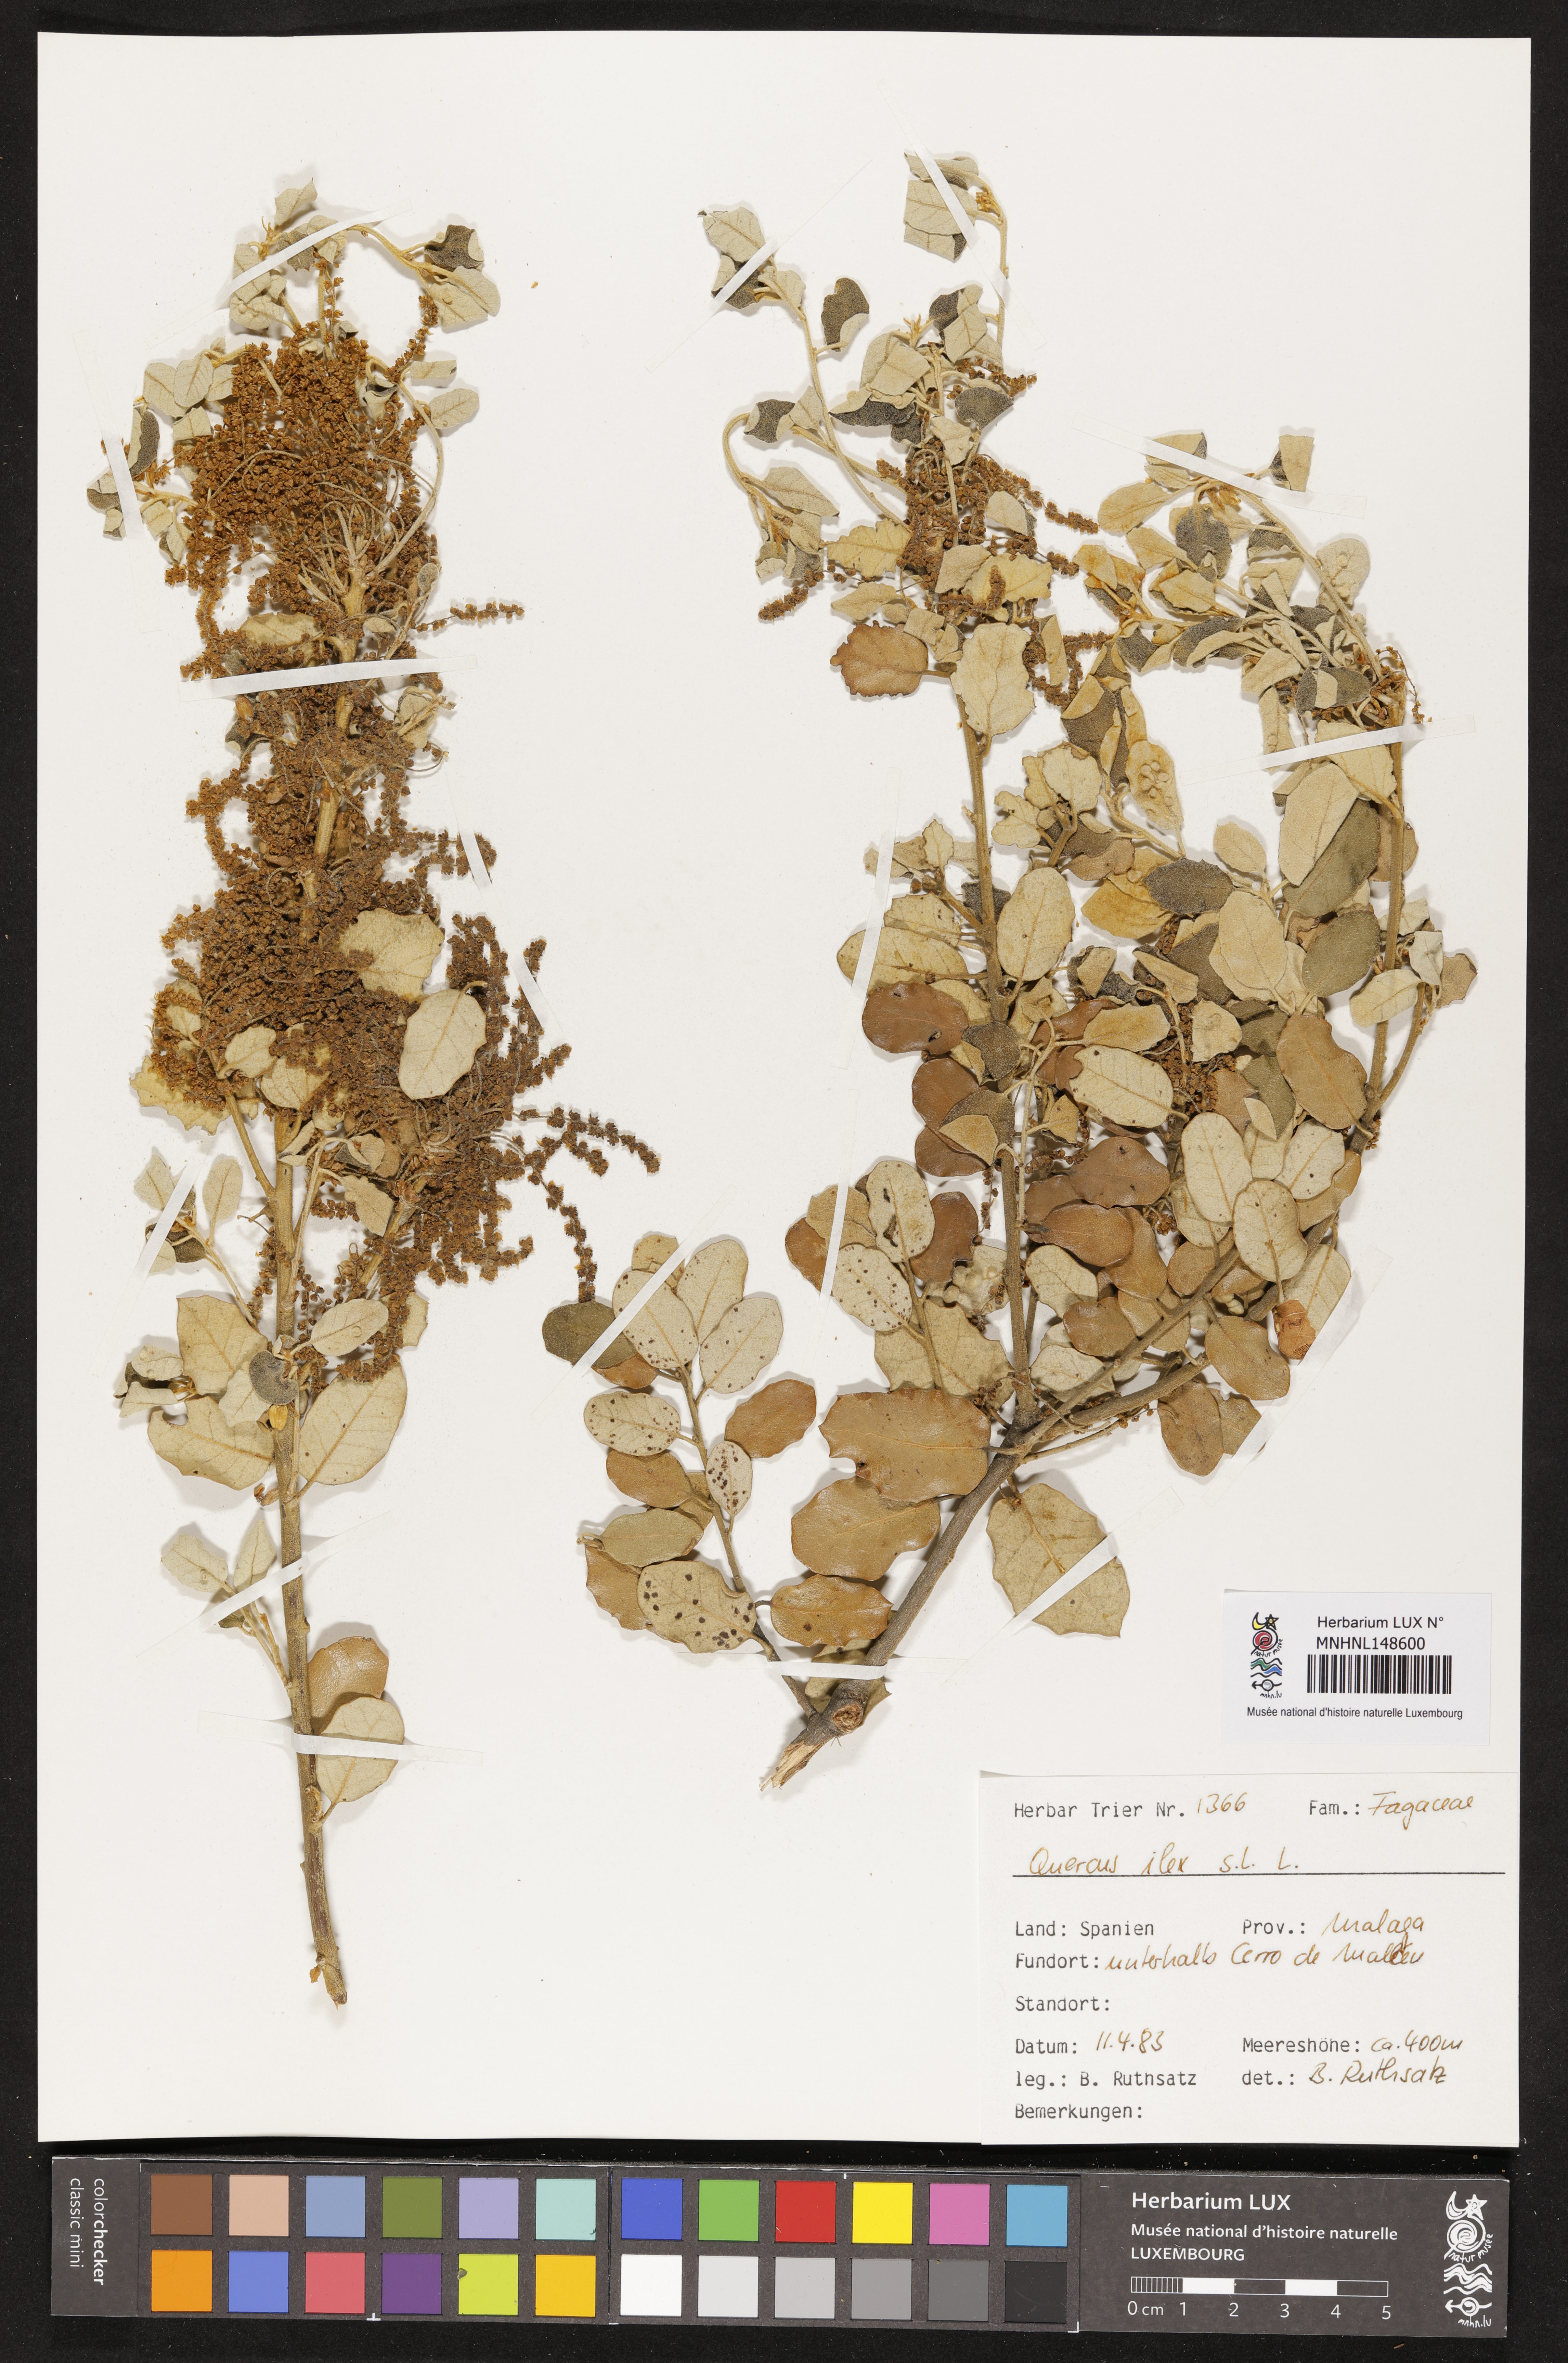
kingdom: Plantae
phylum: Tracheophyta
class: Magnoliopsida
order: Fagales
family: Fagaceae
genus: Quercus
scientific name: Quercus ilex
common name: Evergreen oak
